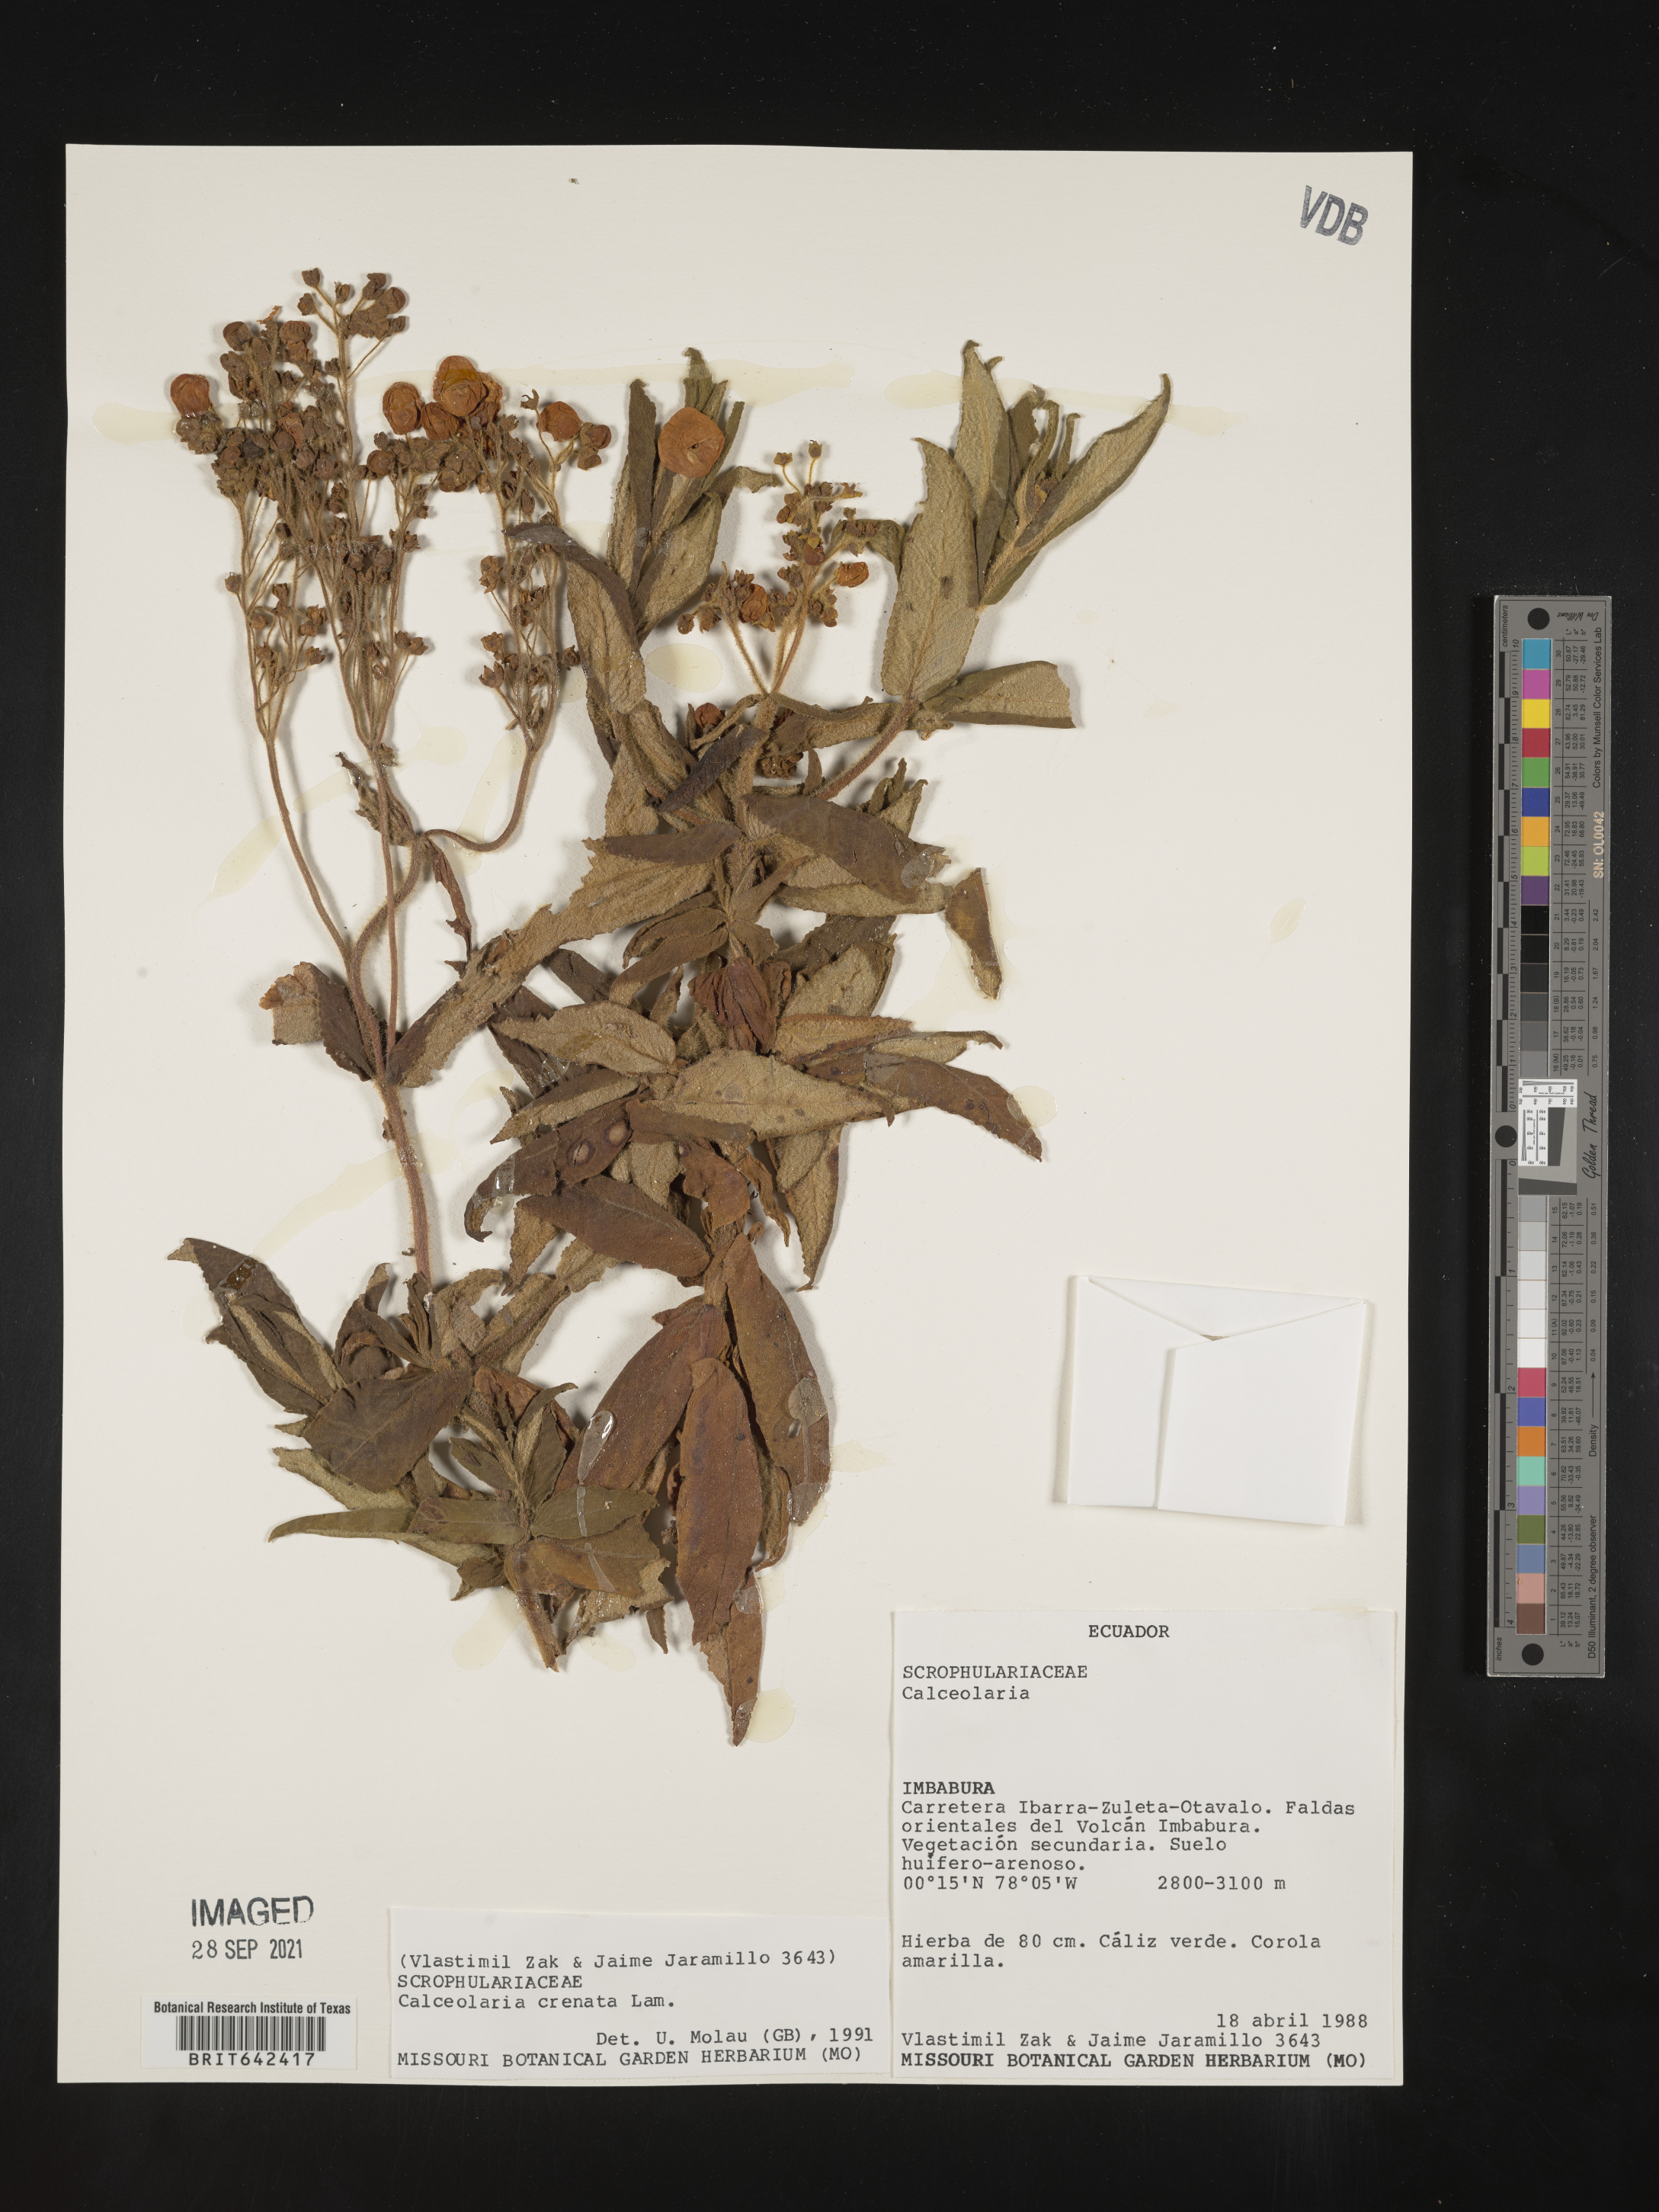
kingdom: Plantae
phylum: Tracheophyta
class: Magnoliopsida
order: Lamiales
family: Calceolariaceae
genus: Calceolaria
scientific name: Calceolaria crenata
